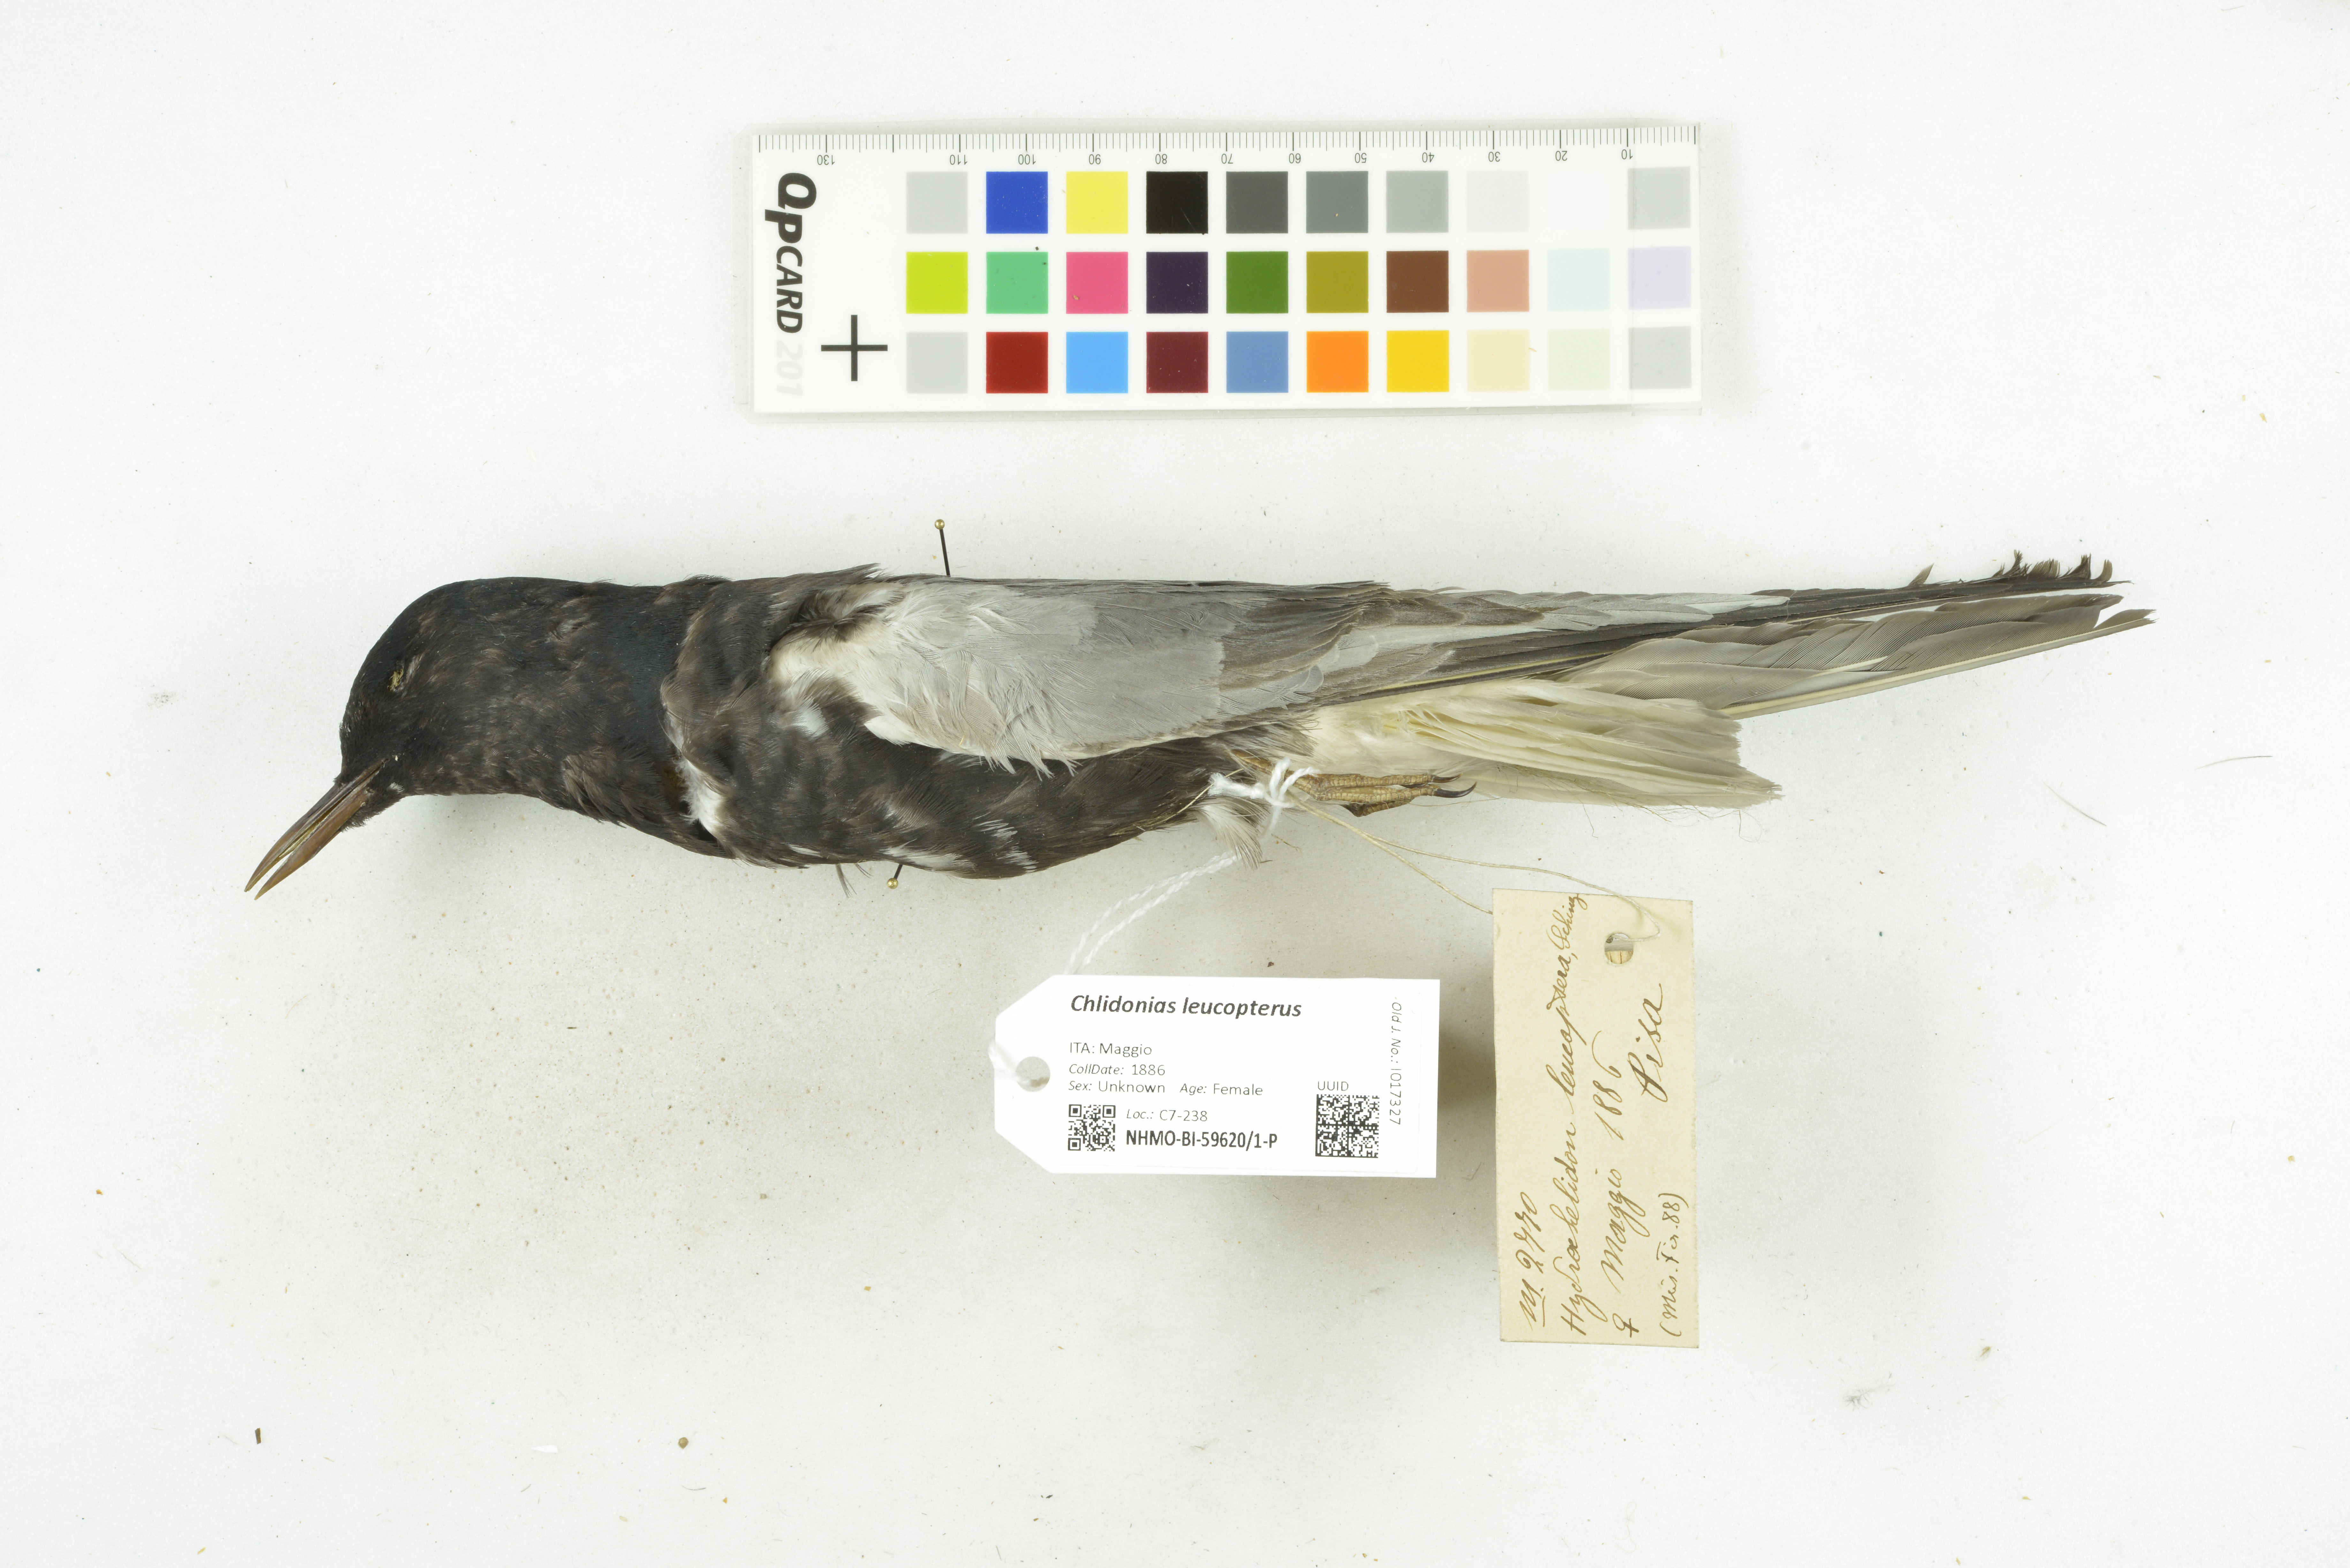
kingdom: Animalia
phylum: Chordata
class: Aves
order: Charadriiformes
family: Laridae
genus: Chlidonias
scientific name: Chlidonias leucopterus
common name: White-winged tern
